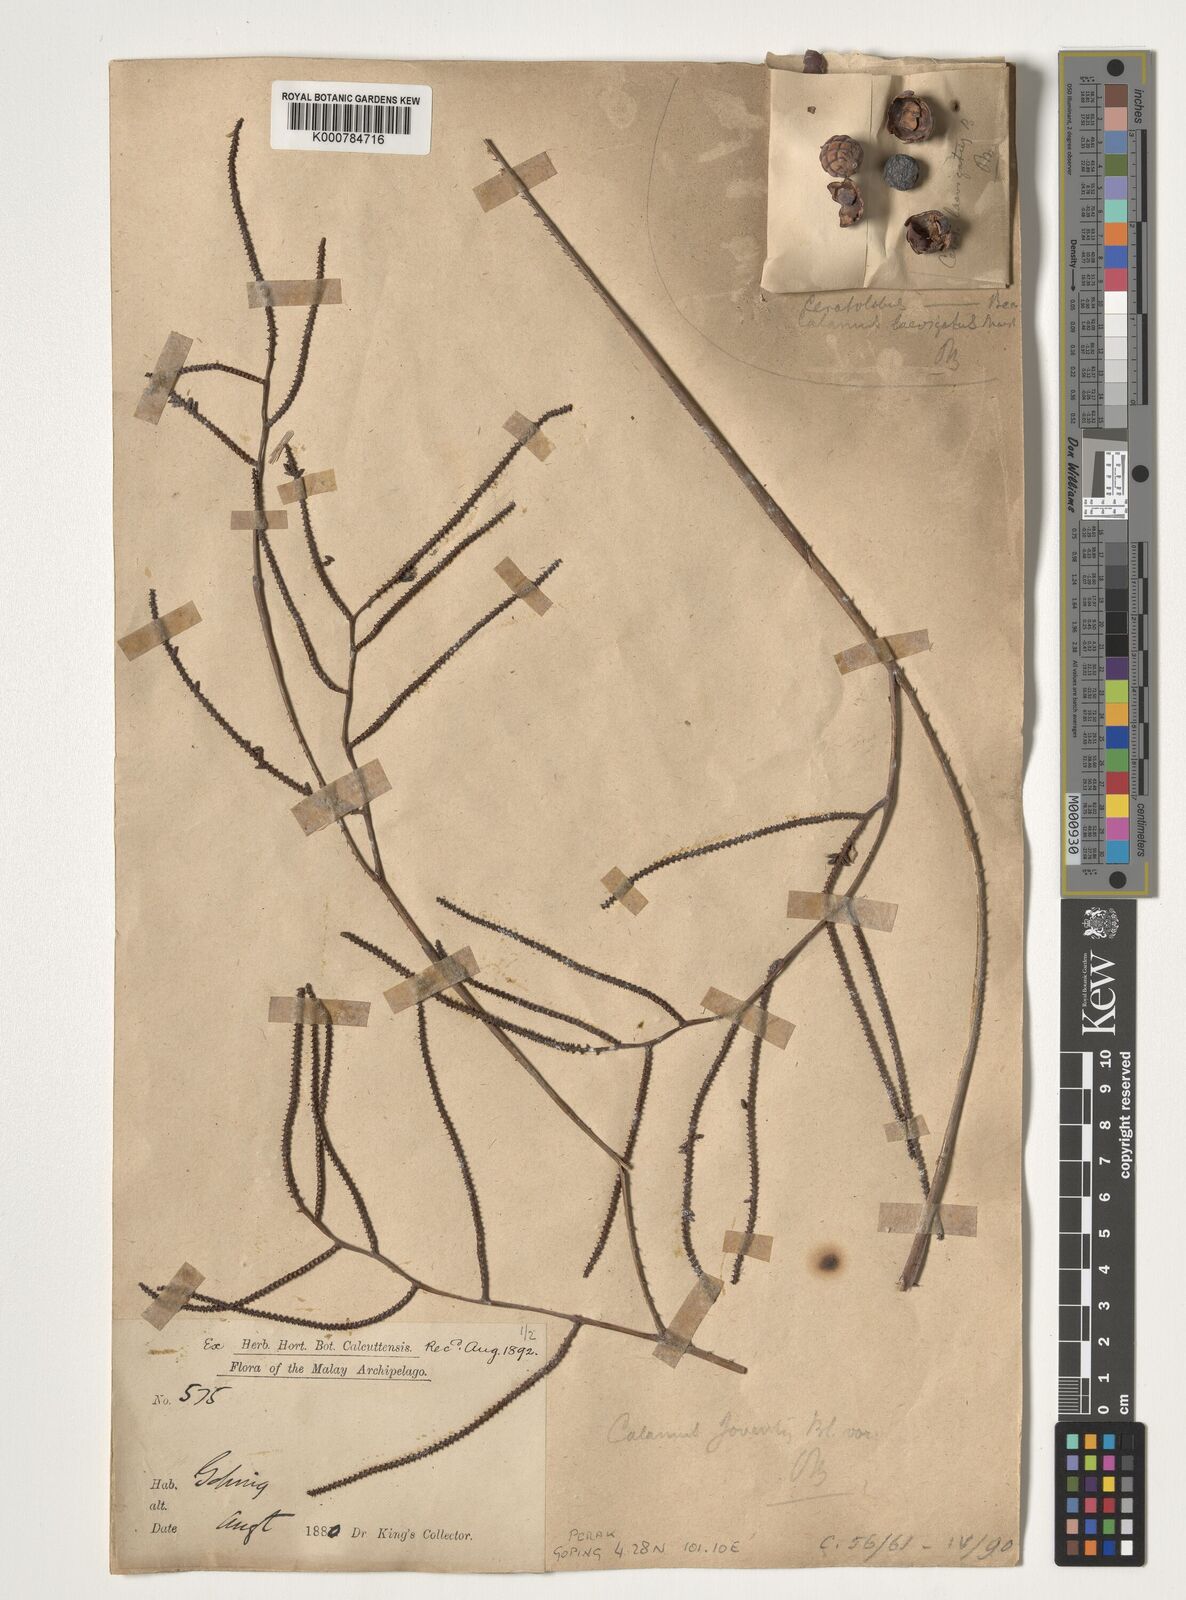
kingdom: Plantae
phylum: Tracheophyta
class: Liliopsida
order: Arecales
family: Arecaceae
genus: Calamus
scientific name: Calamus javensis
